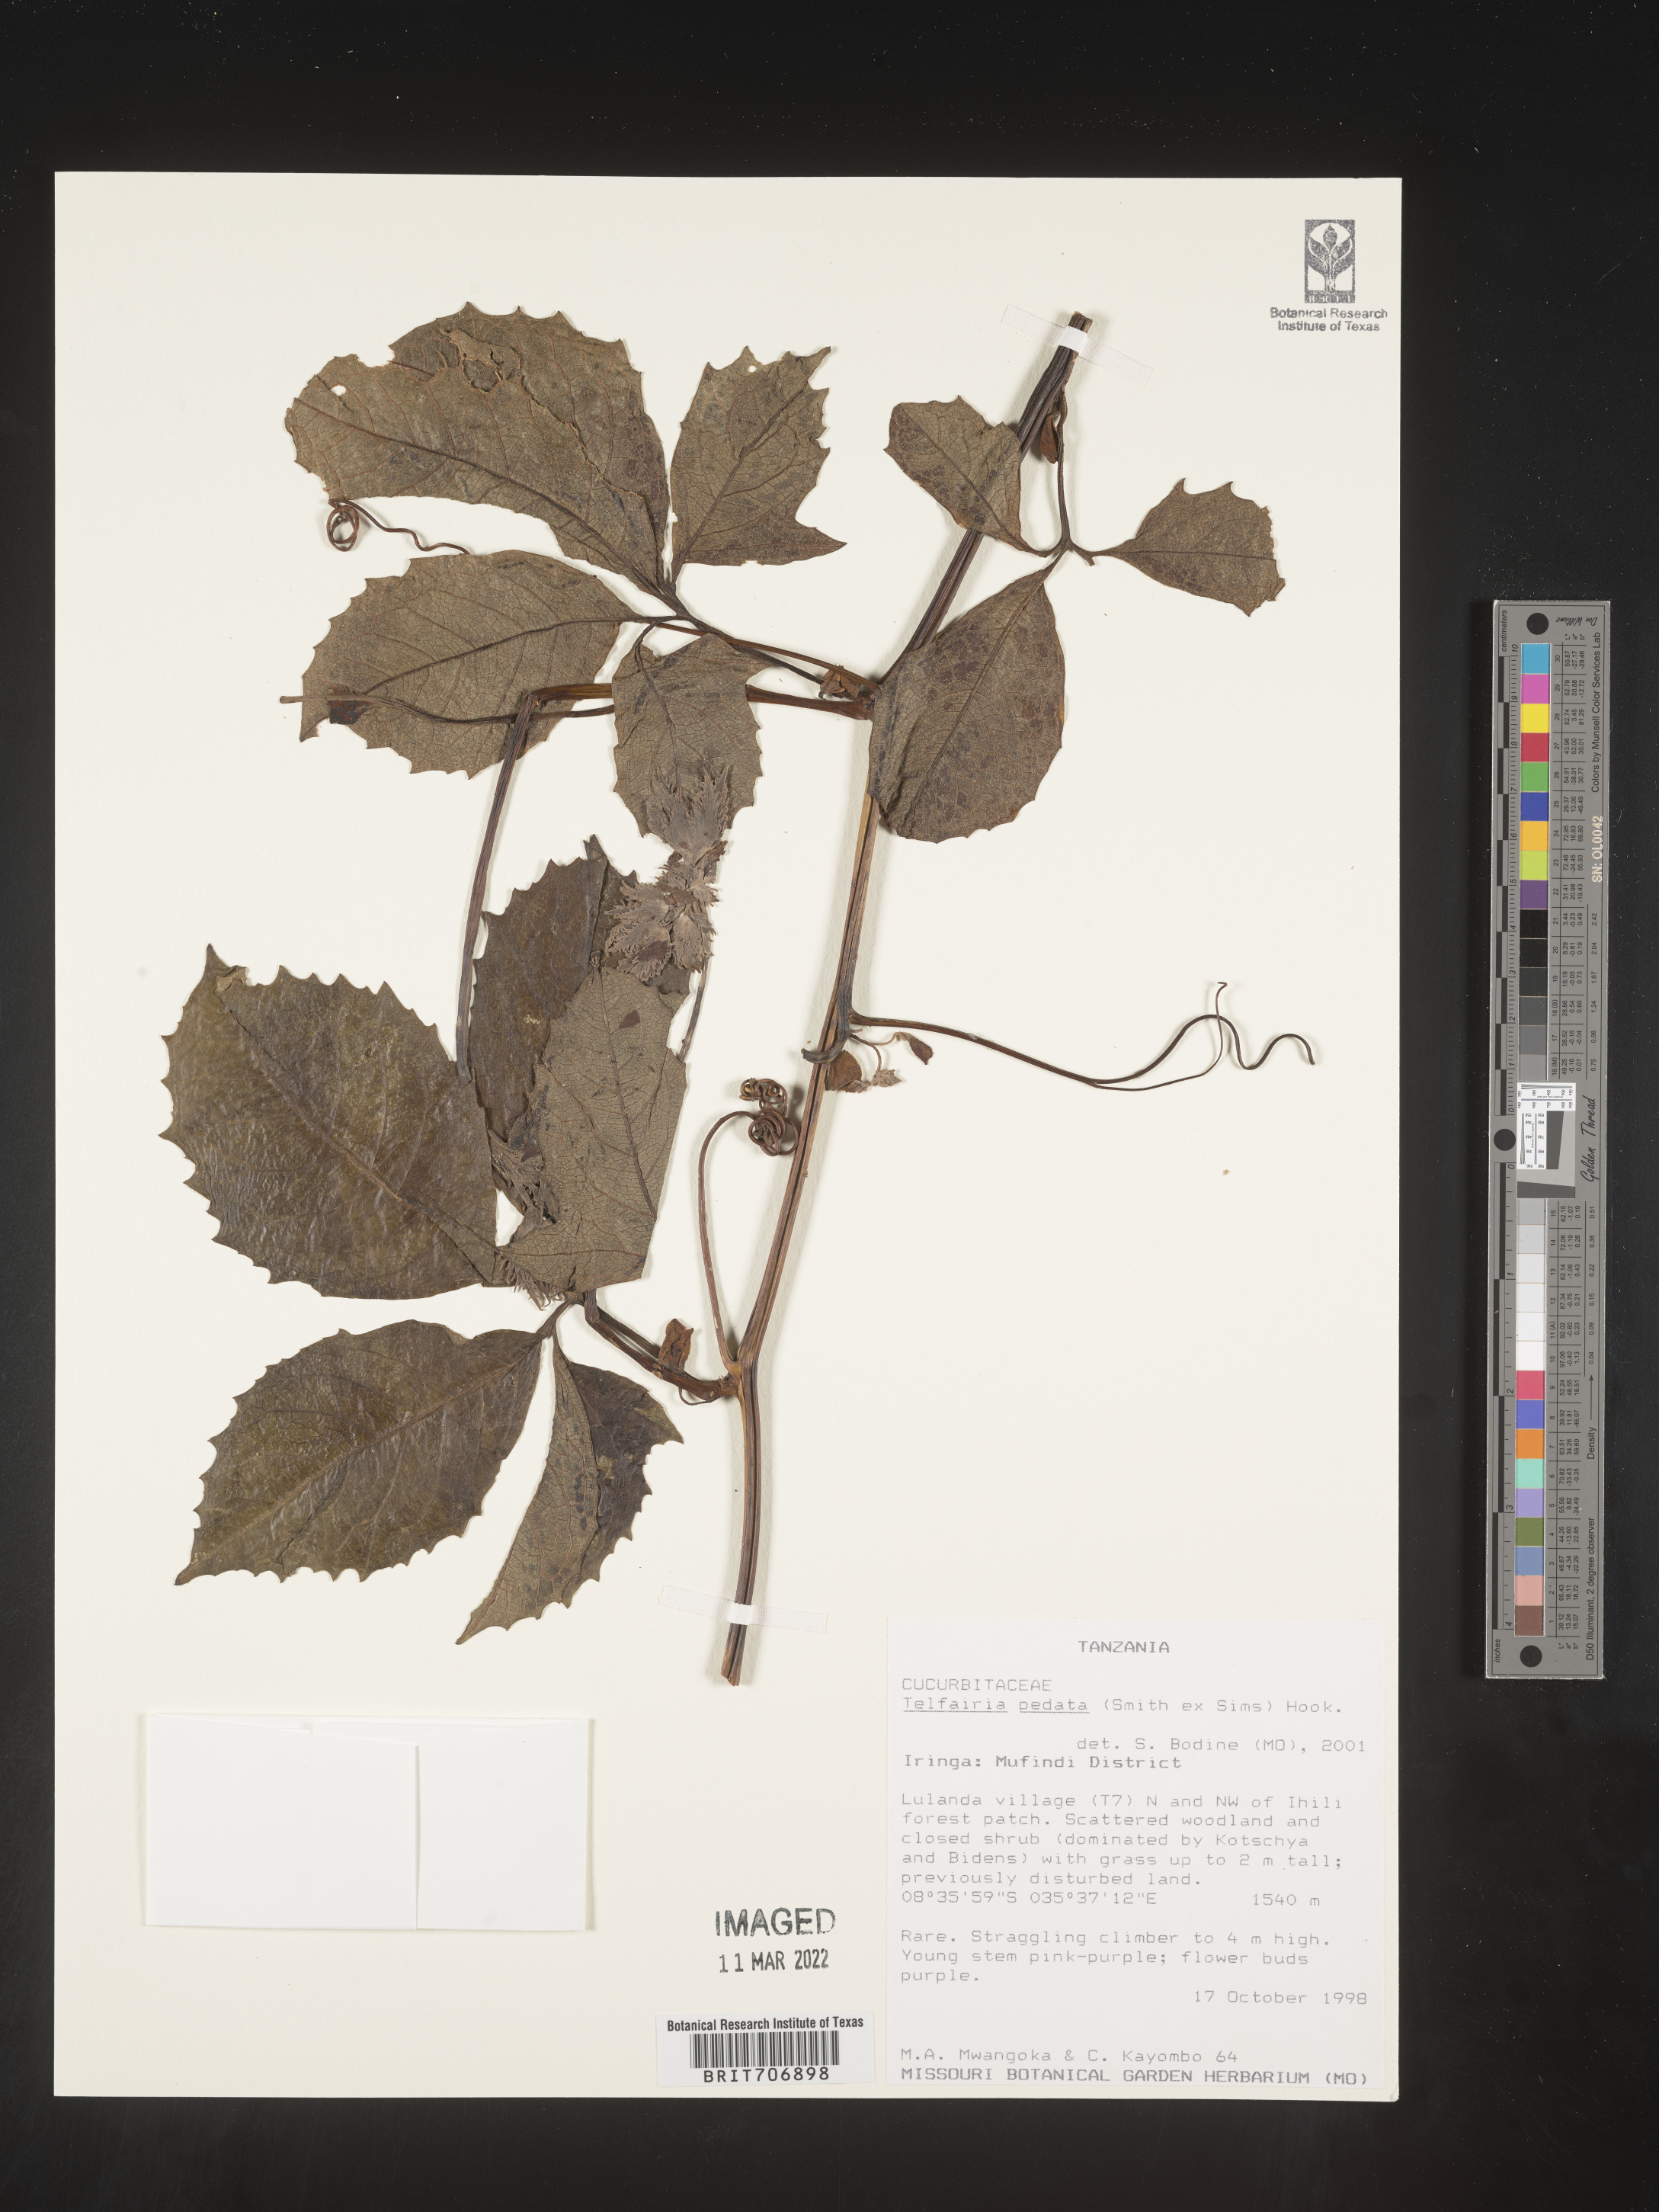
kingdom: Plantae
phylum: Tracheophyta
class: Magnoliopsida
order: Cucurbitales
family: Cucurbitaceae
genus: Telfairia
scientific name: Telfairia
